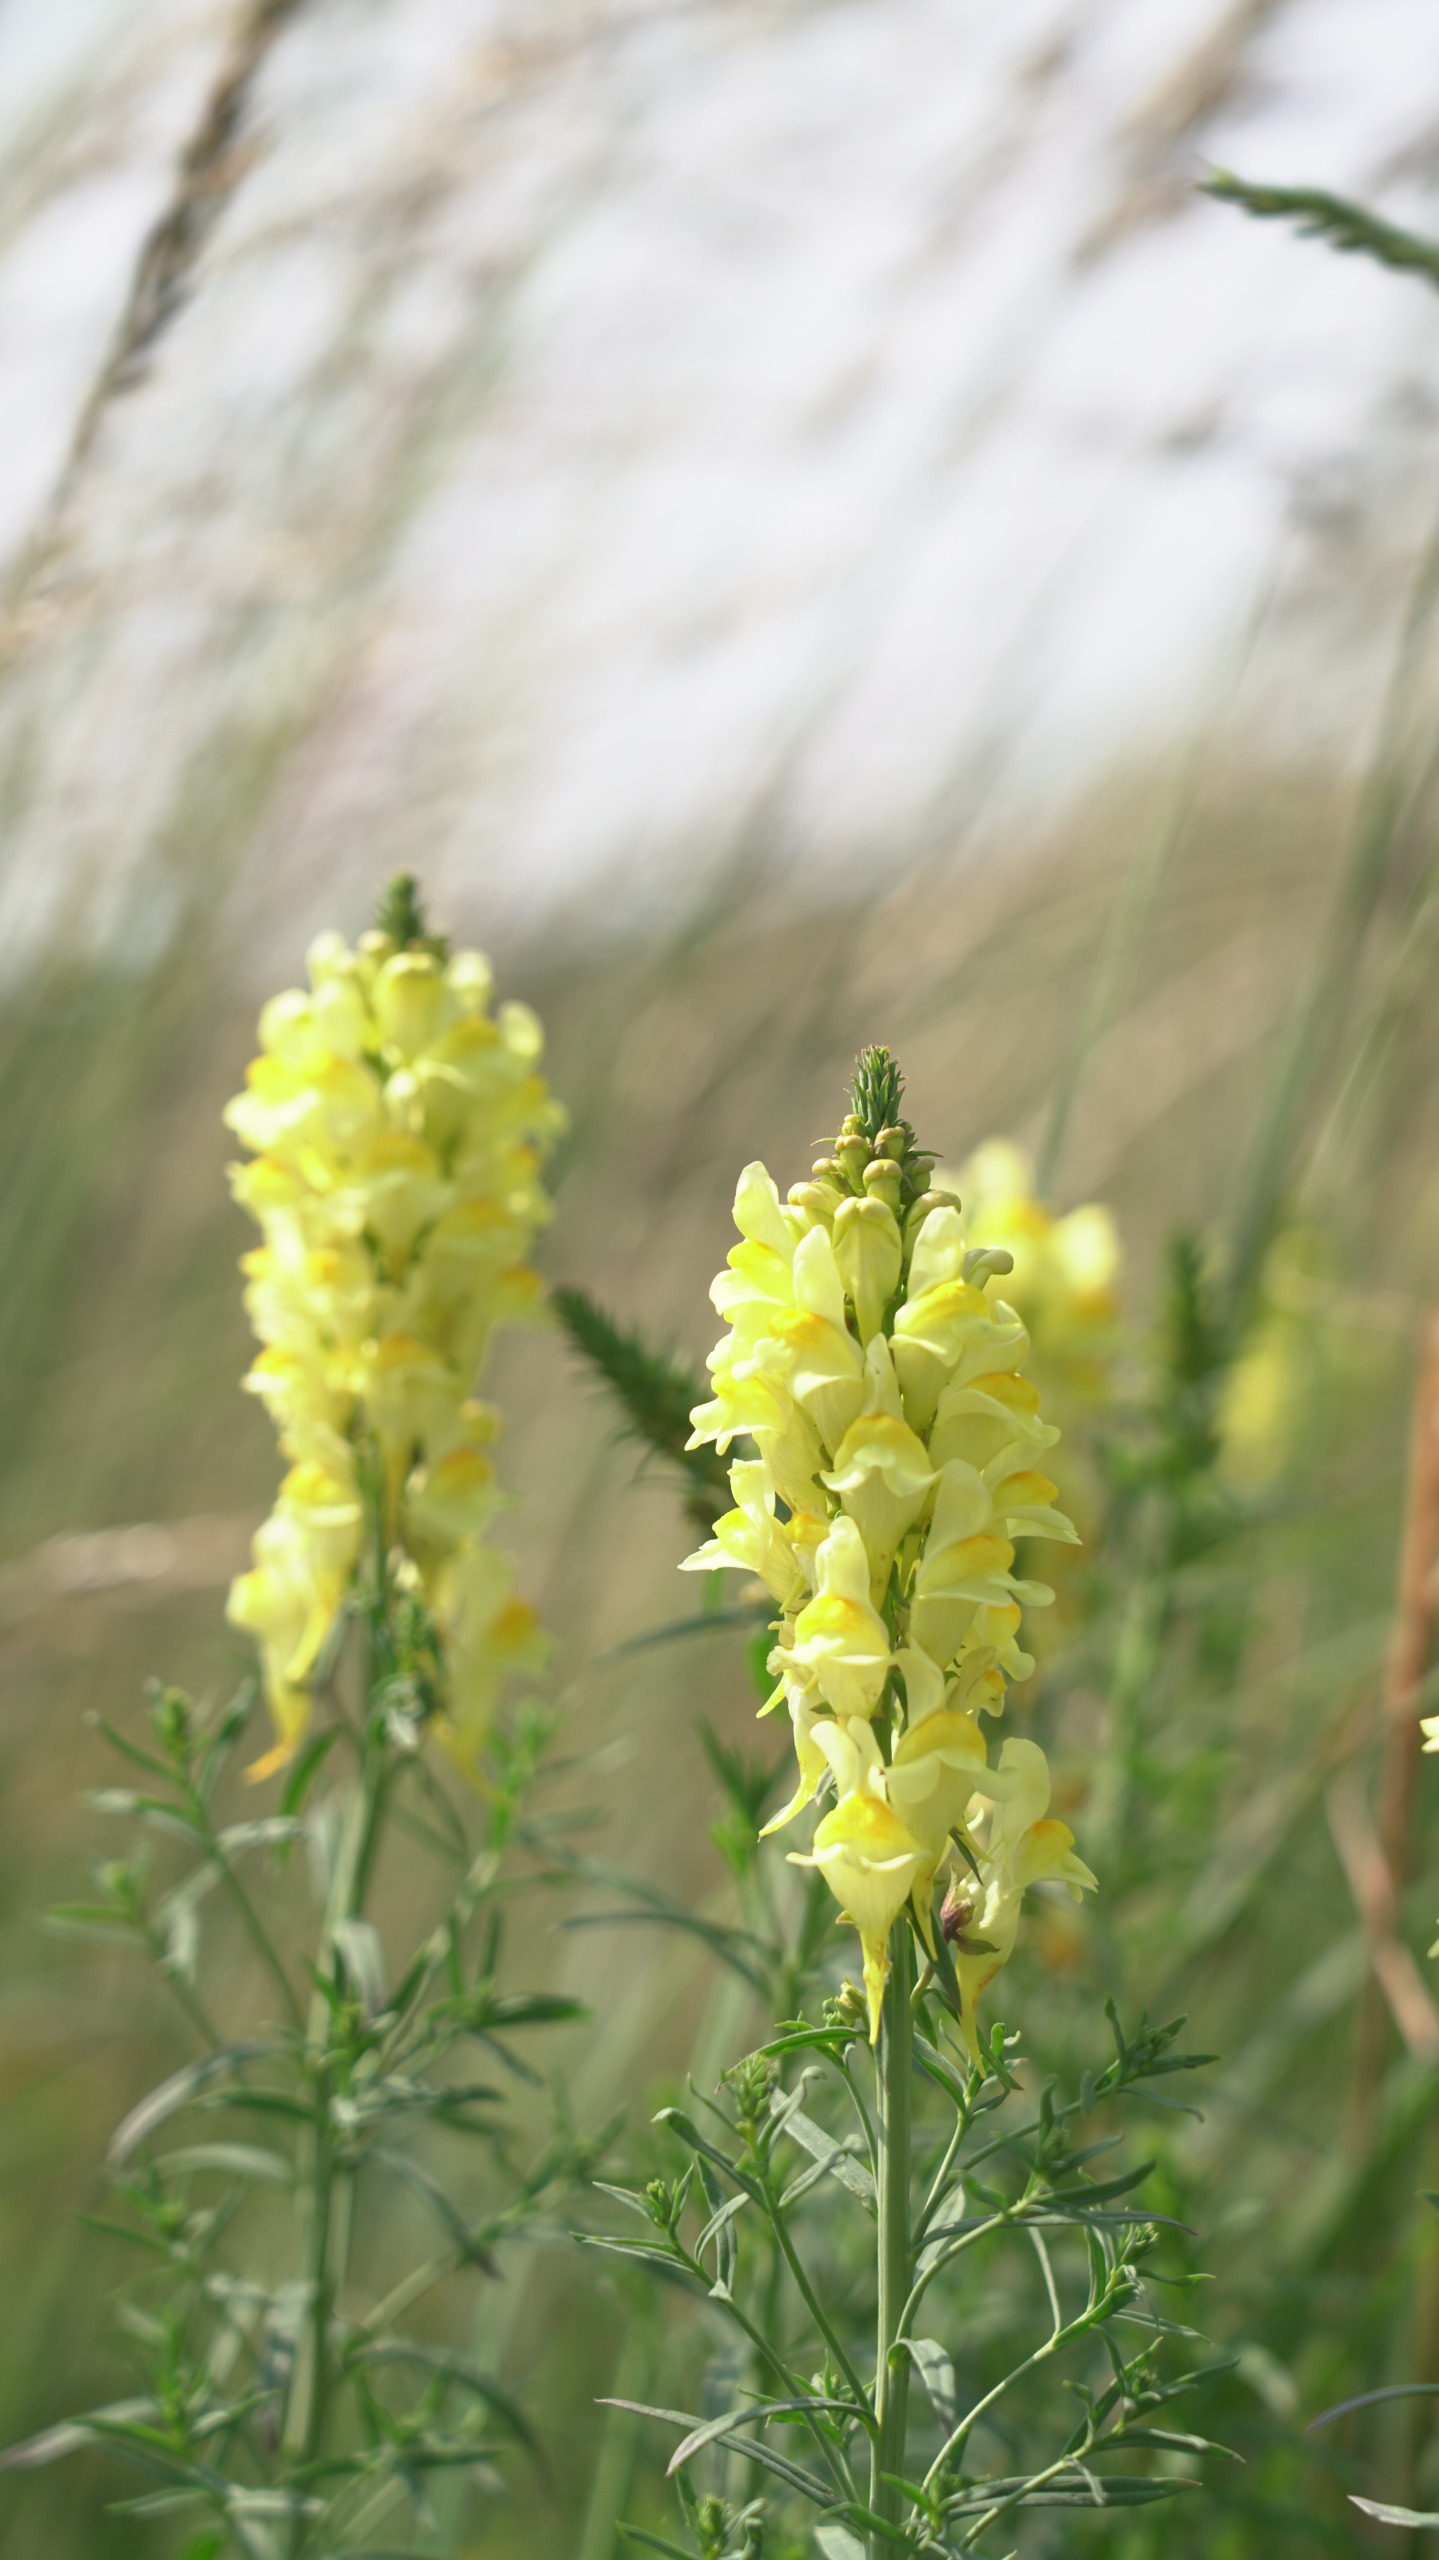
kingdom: Plantae
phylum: Tracheophyta
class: Magnoliopsida
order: Lamiales
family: Plantaginaceae
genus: Linaria
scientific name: Linaria vulgaris
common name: Almindelig torskemund
